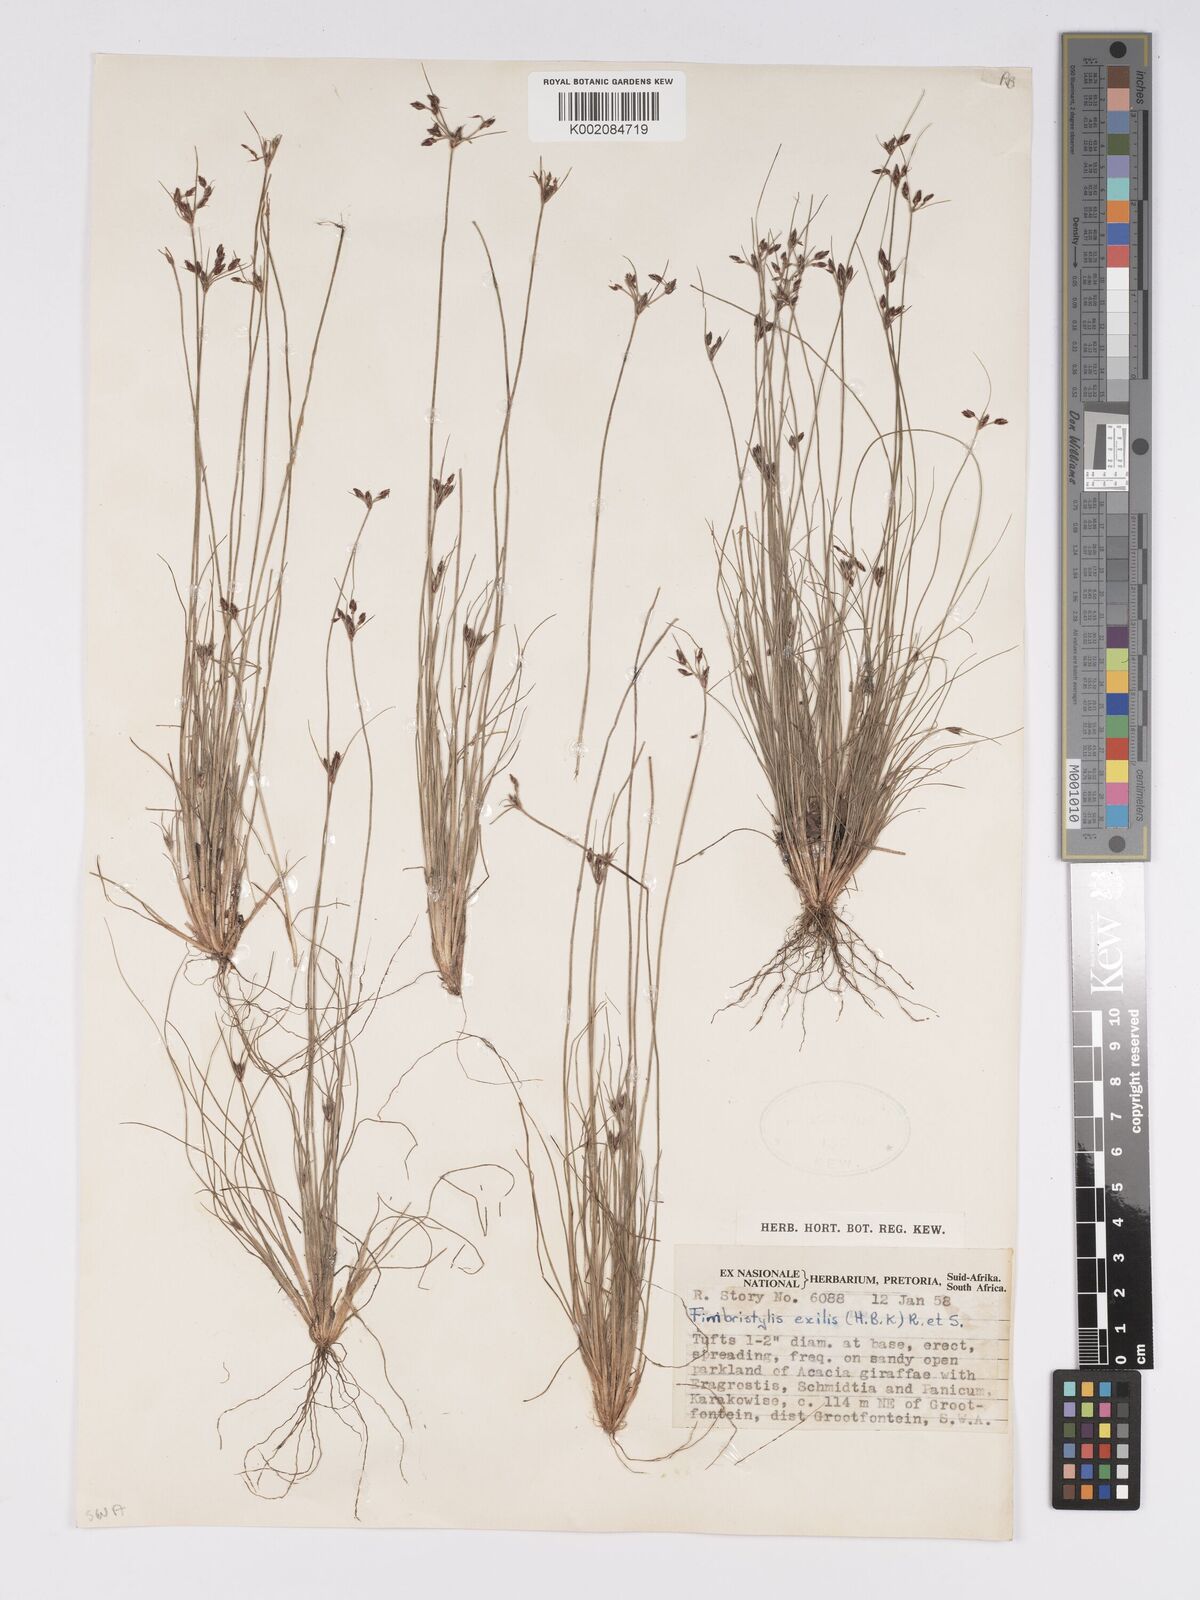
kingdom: Plantae
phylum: Tracheophyta
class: Liliopsida
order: Poales
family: Cyperaceae
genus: Bulbostylis
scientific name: Bulbostylis hispidula
